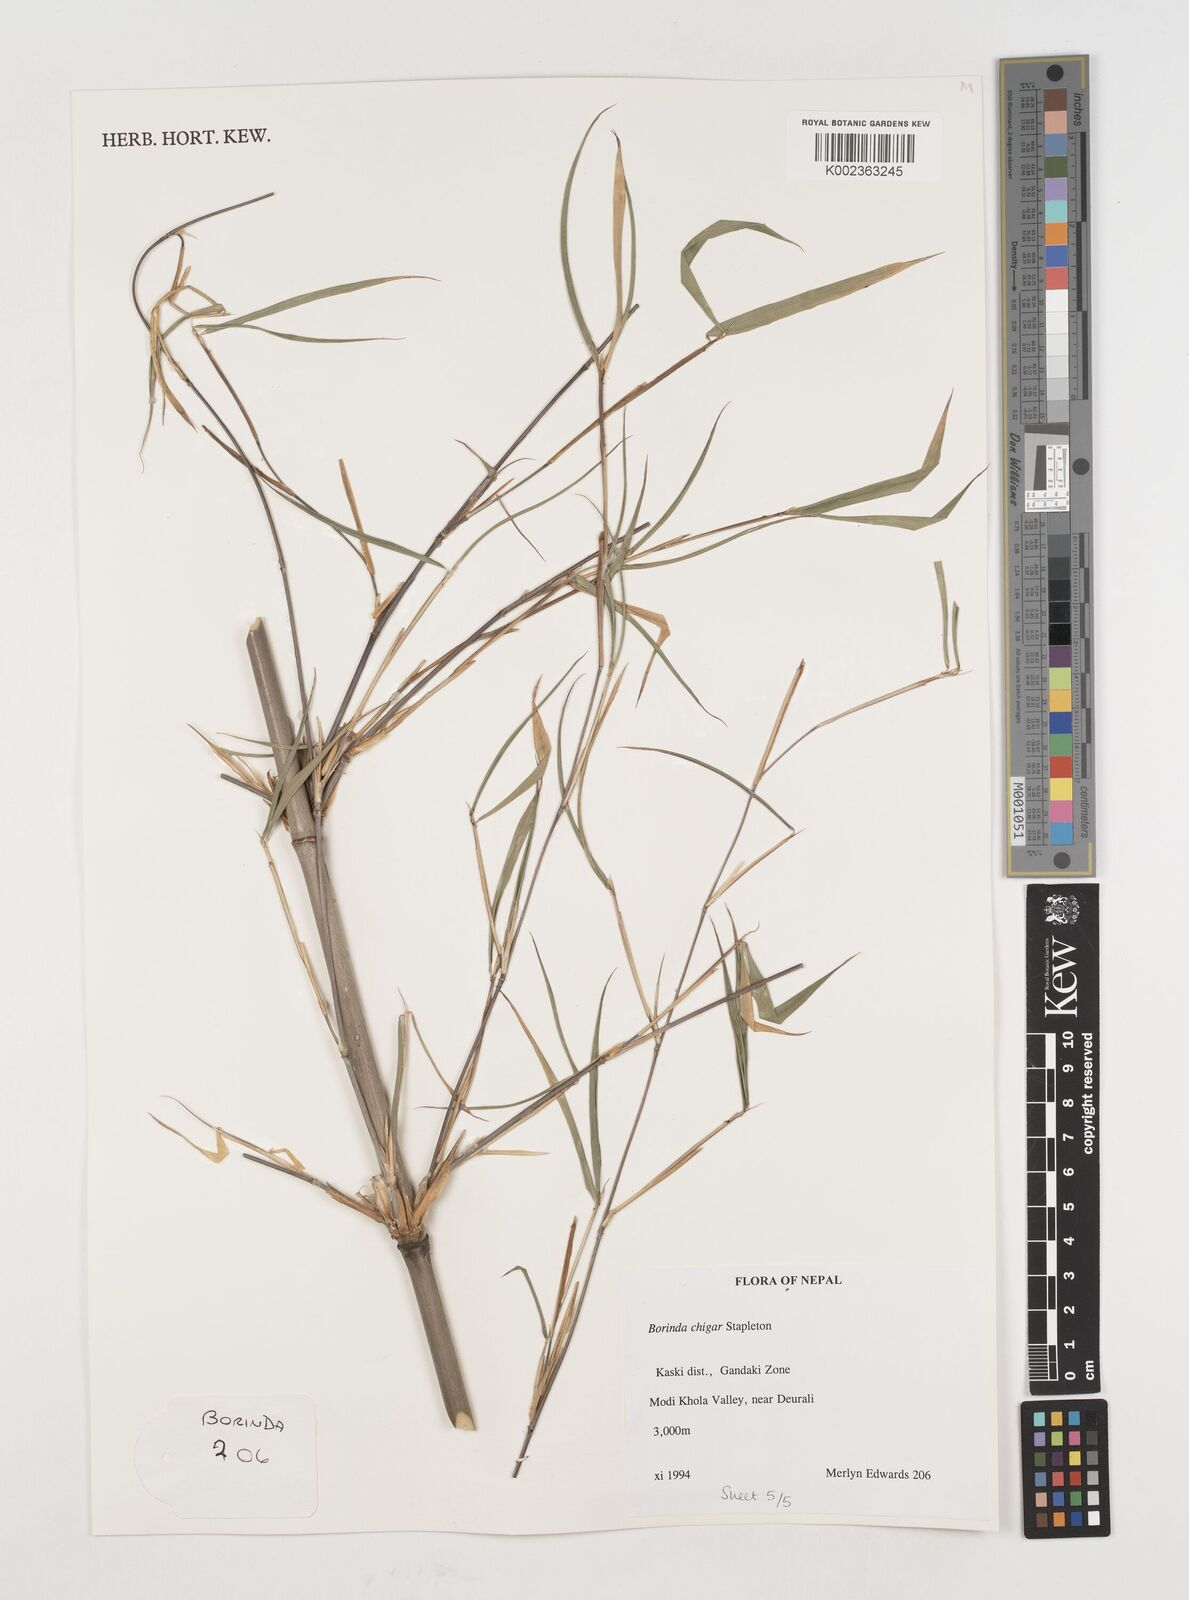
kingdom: Plantae
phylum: Tracheophyta
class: Liliopsida
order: Poales
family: Poaceae
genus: Fargesia
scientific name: Fargesia
